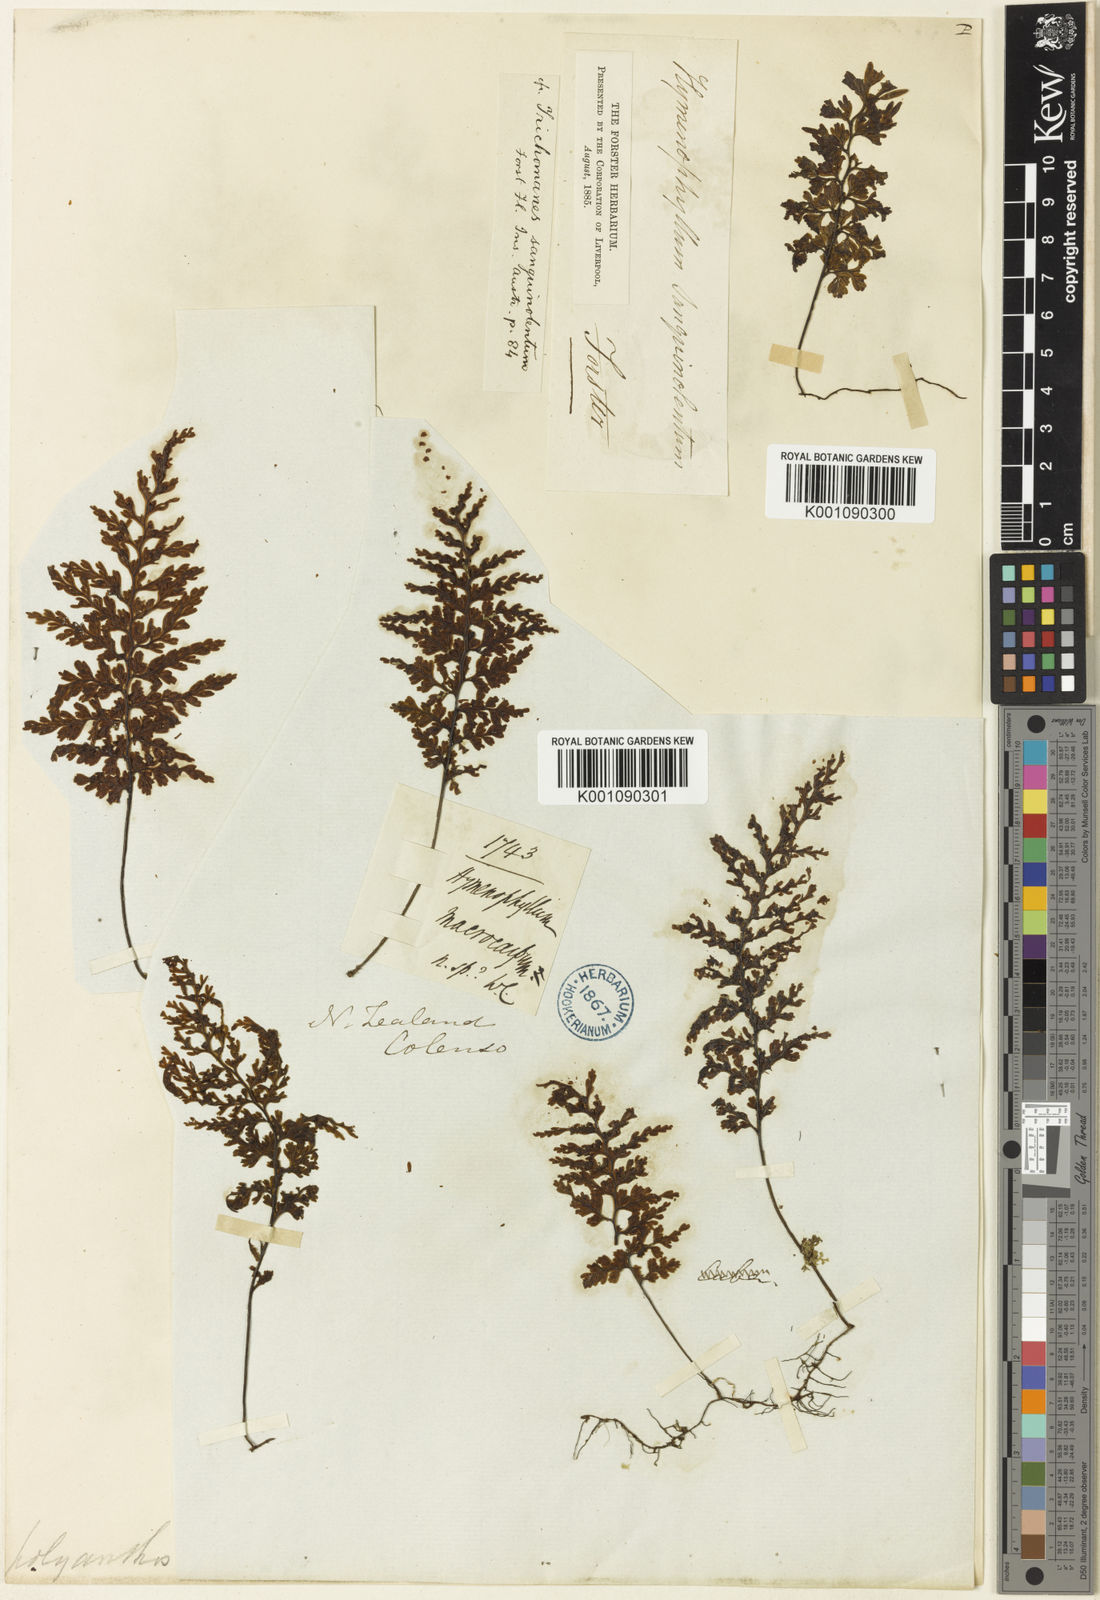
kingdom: Plantae
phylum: Tracheophyta
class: Polypodiopsida
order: Hymenophyllales
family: Hymenophyllaceae
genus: Hymenophyllum
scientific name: Hymenophyllum sanguinolentum
